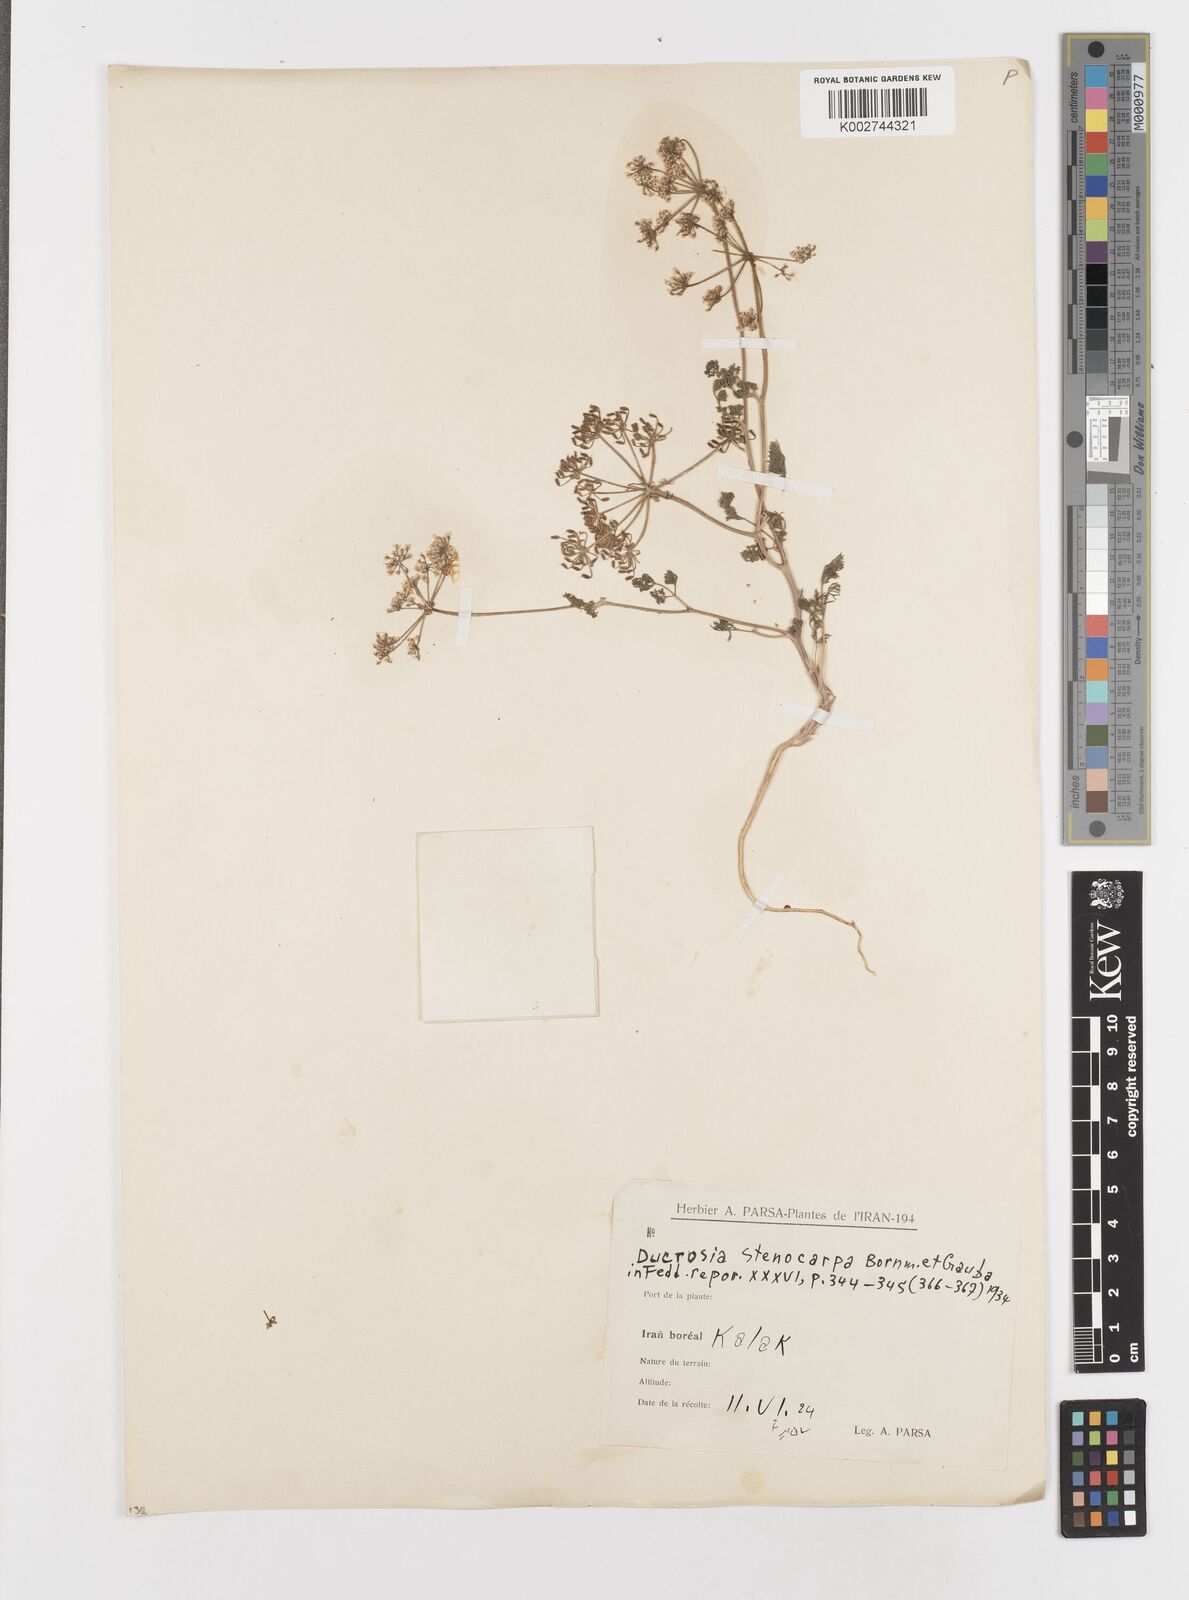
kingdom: Plantae
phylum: Tracheophyta
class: Magnoliopsida
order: Apiales
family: Apiaceae
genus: Kalakia
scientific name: Kalakia marginata
